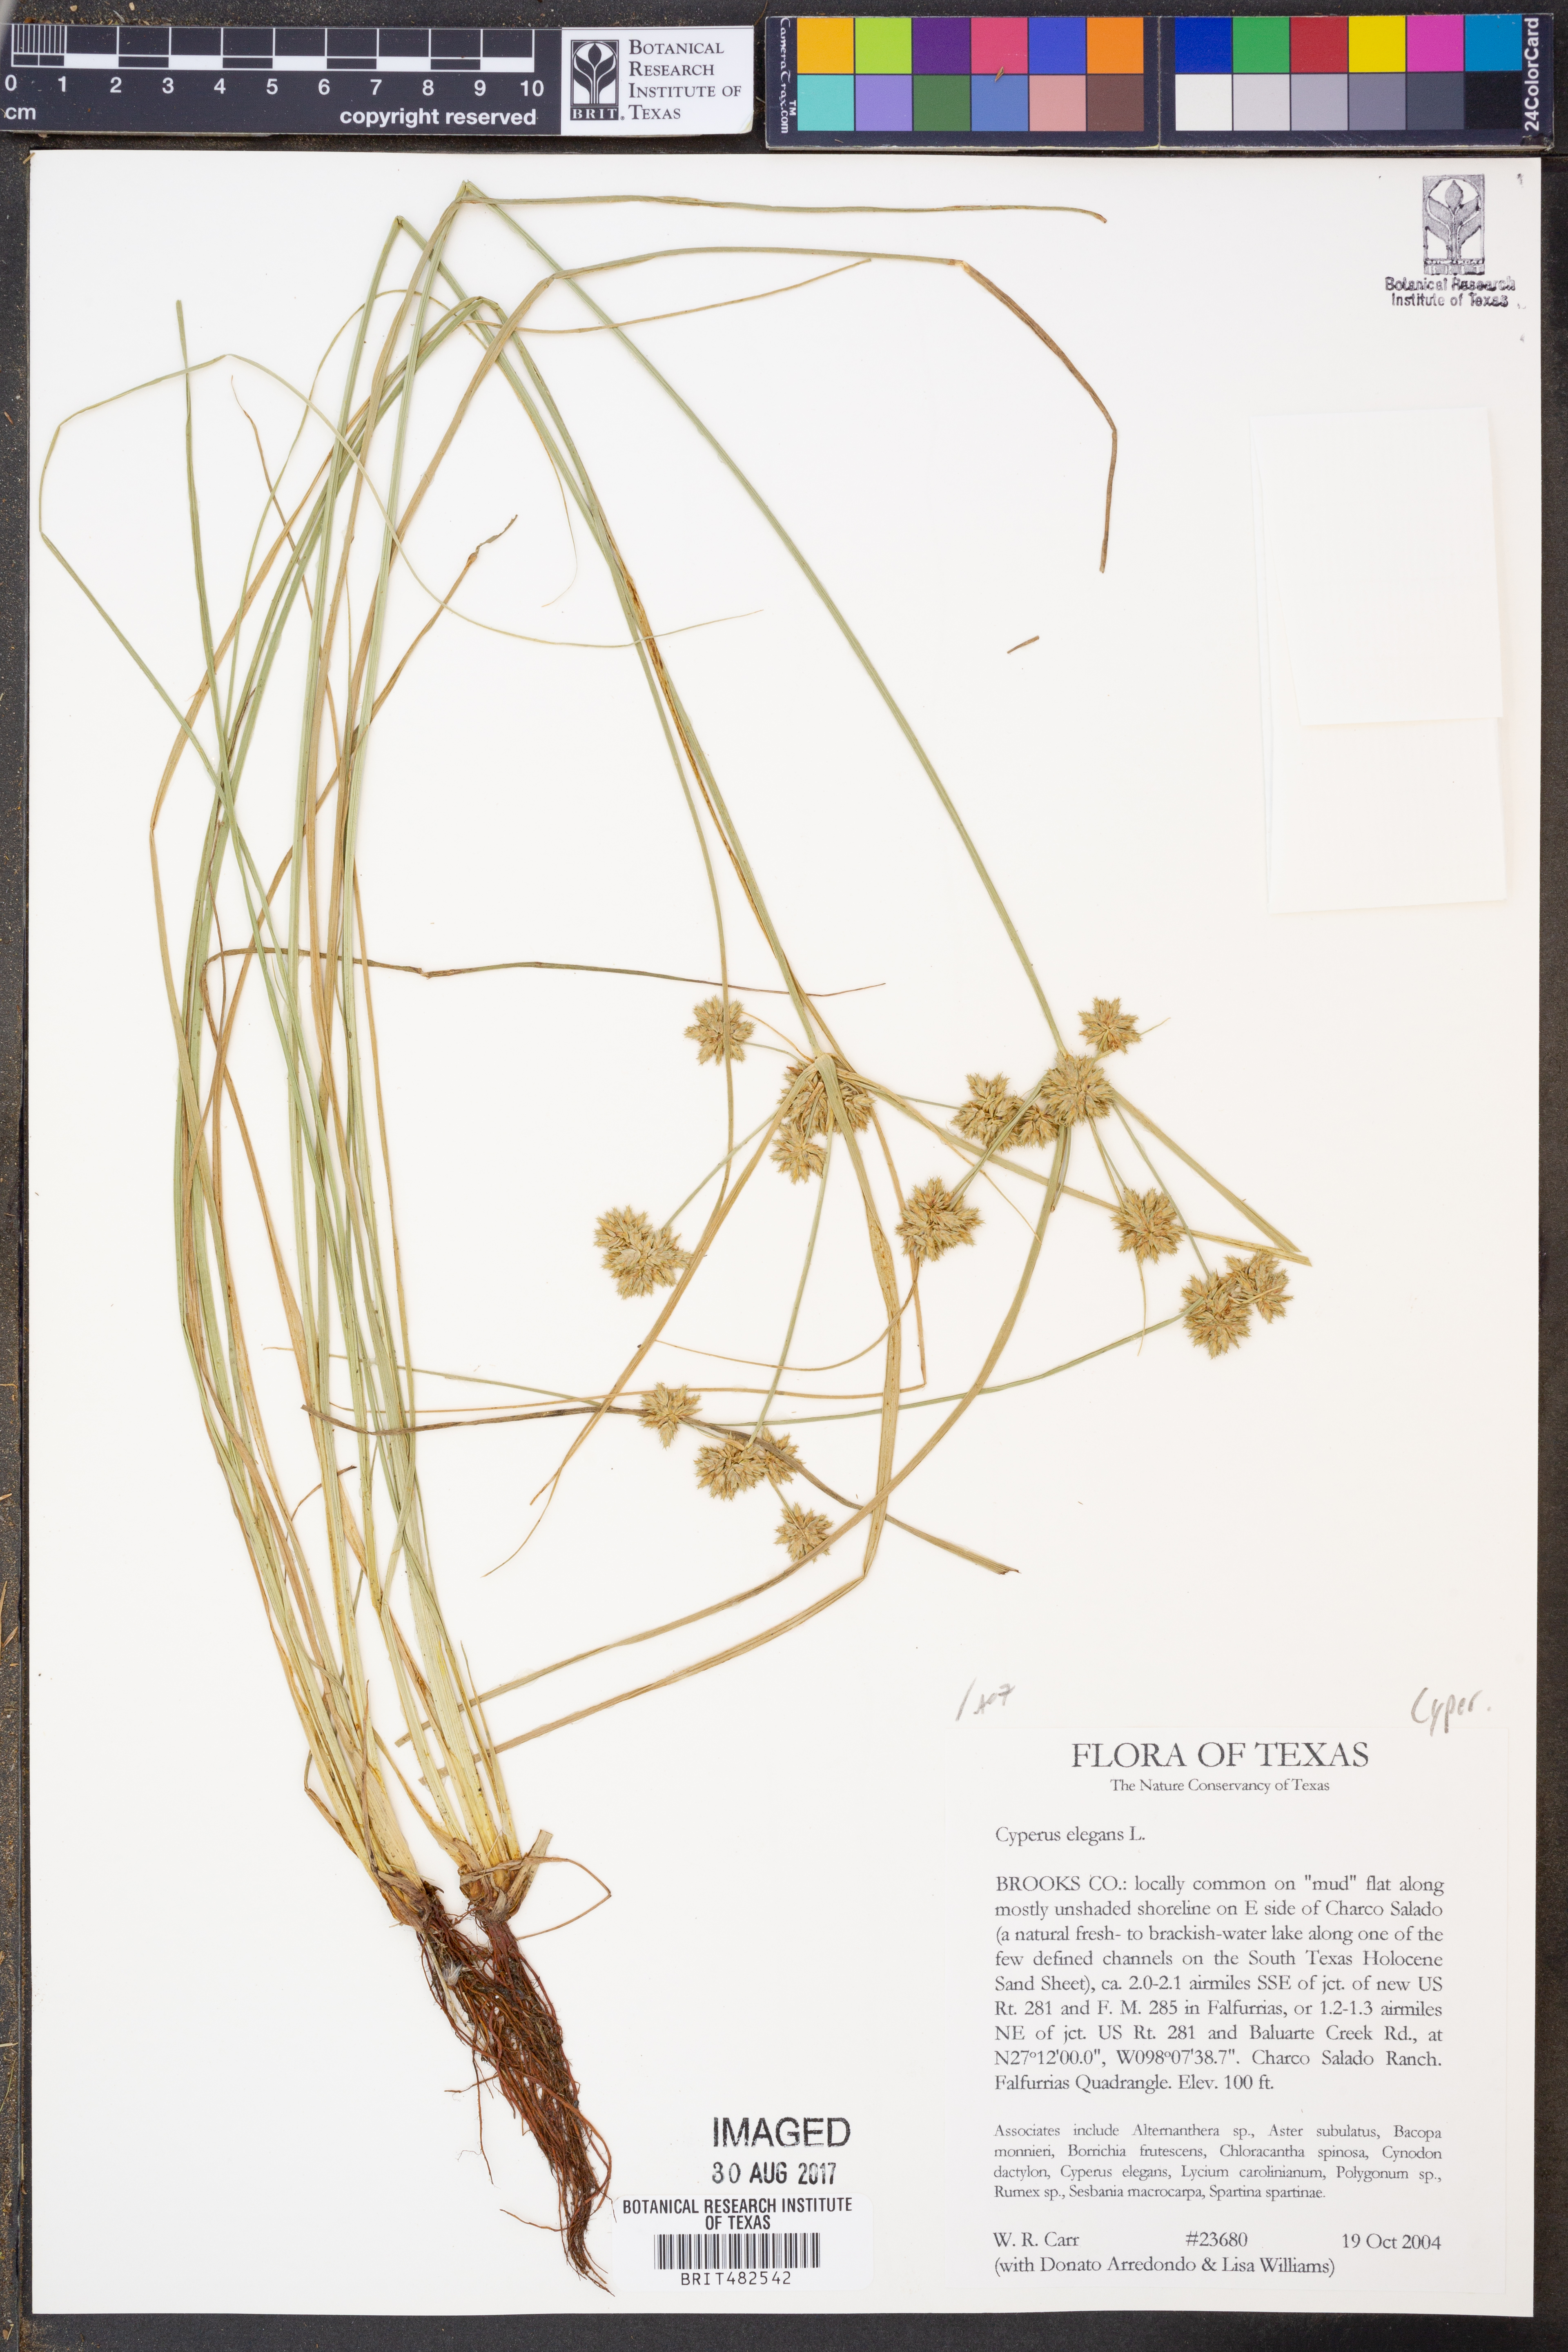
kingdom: Plantae
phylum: Tracheophyta
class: Liliopsida
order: Poales
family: Cyperaceae
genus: Cyperus
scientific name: Cyperus elegans
